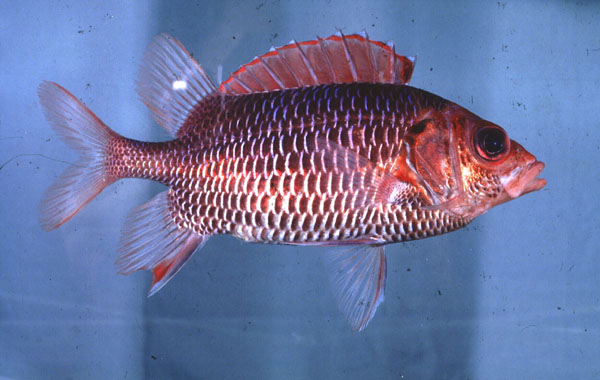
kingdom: Animalia
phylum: Chordata
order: Beryciformes
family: Holocentridae
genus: Sargocentron
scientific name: Sargocentron violaceum
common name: Red-faced squirrelfish
